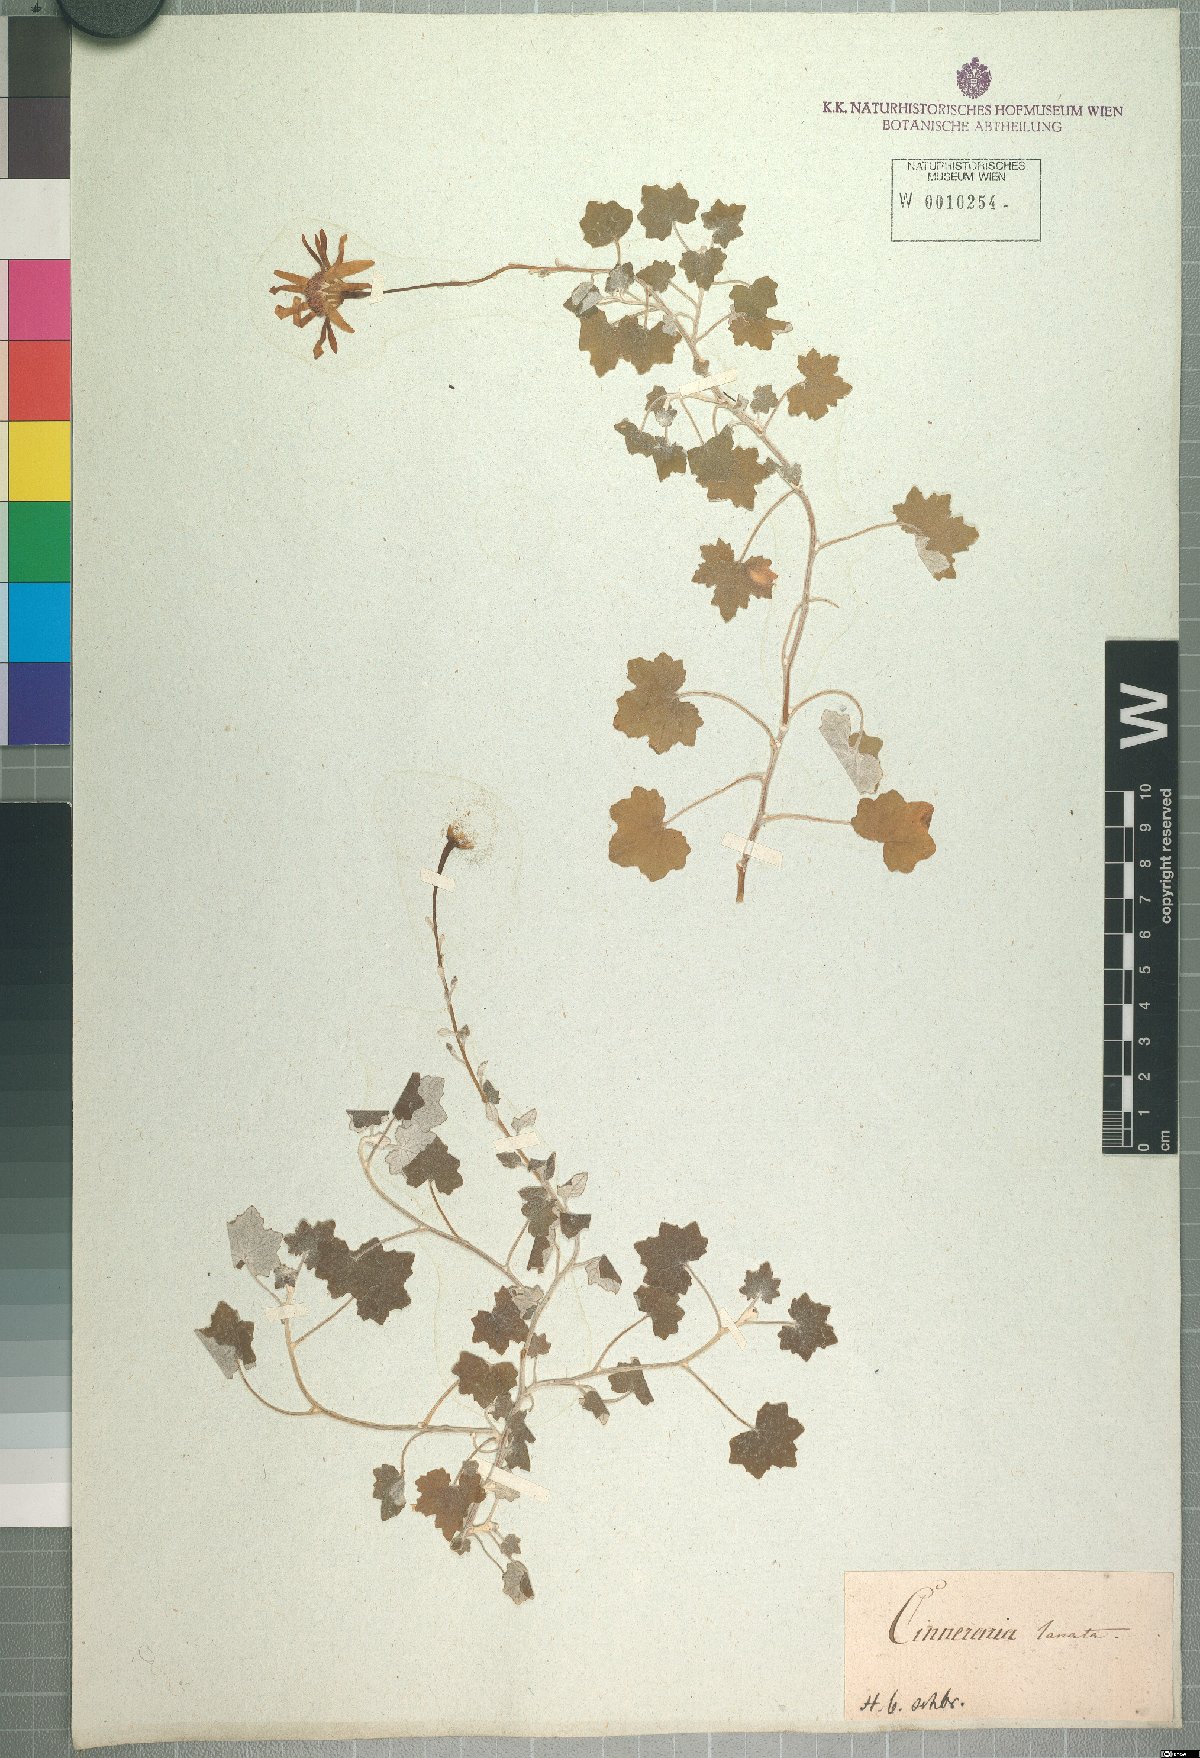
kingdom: Plantae
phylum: Tracheophyta
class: Magnoliopsida
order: Asterales
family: Asteraceae
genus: Cineraria
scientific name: Cineraria lanosa
